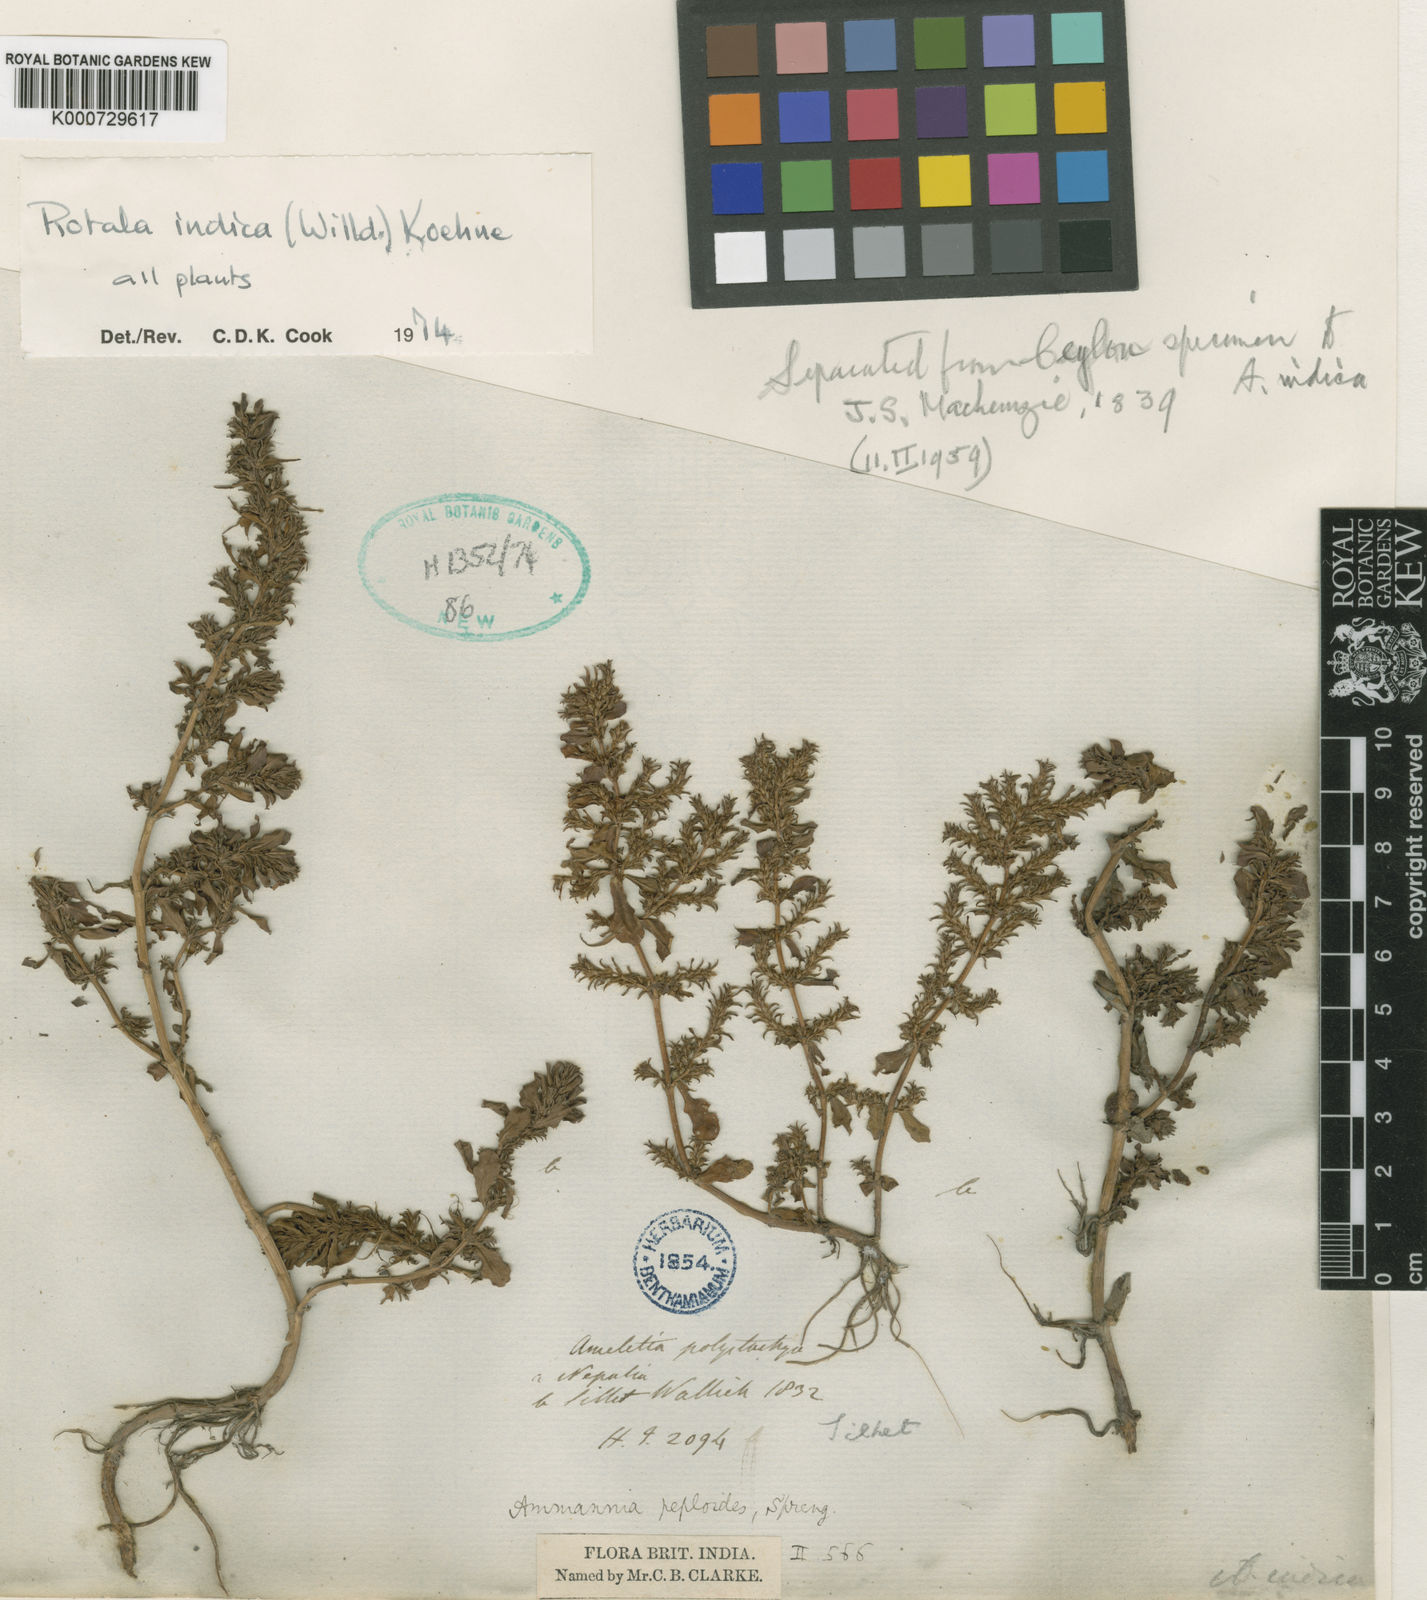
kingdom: Plantae
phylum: Tracheophyta
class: Magnoliopsida
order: Myrtales
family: Lythraceae
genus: Rotala
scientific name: Rotala indica
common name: Indian toothcup
